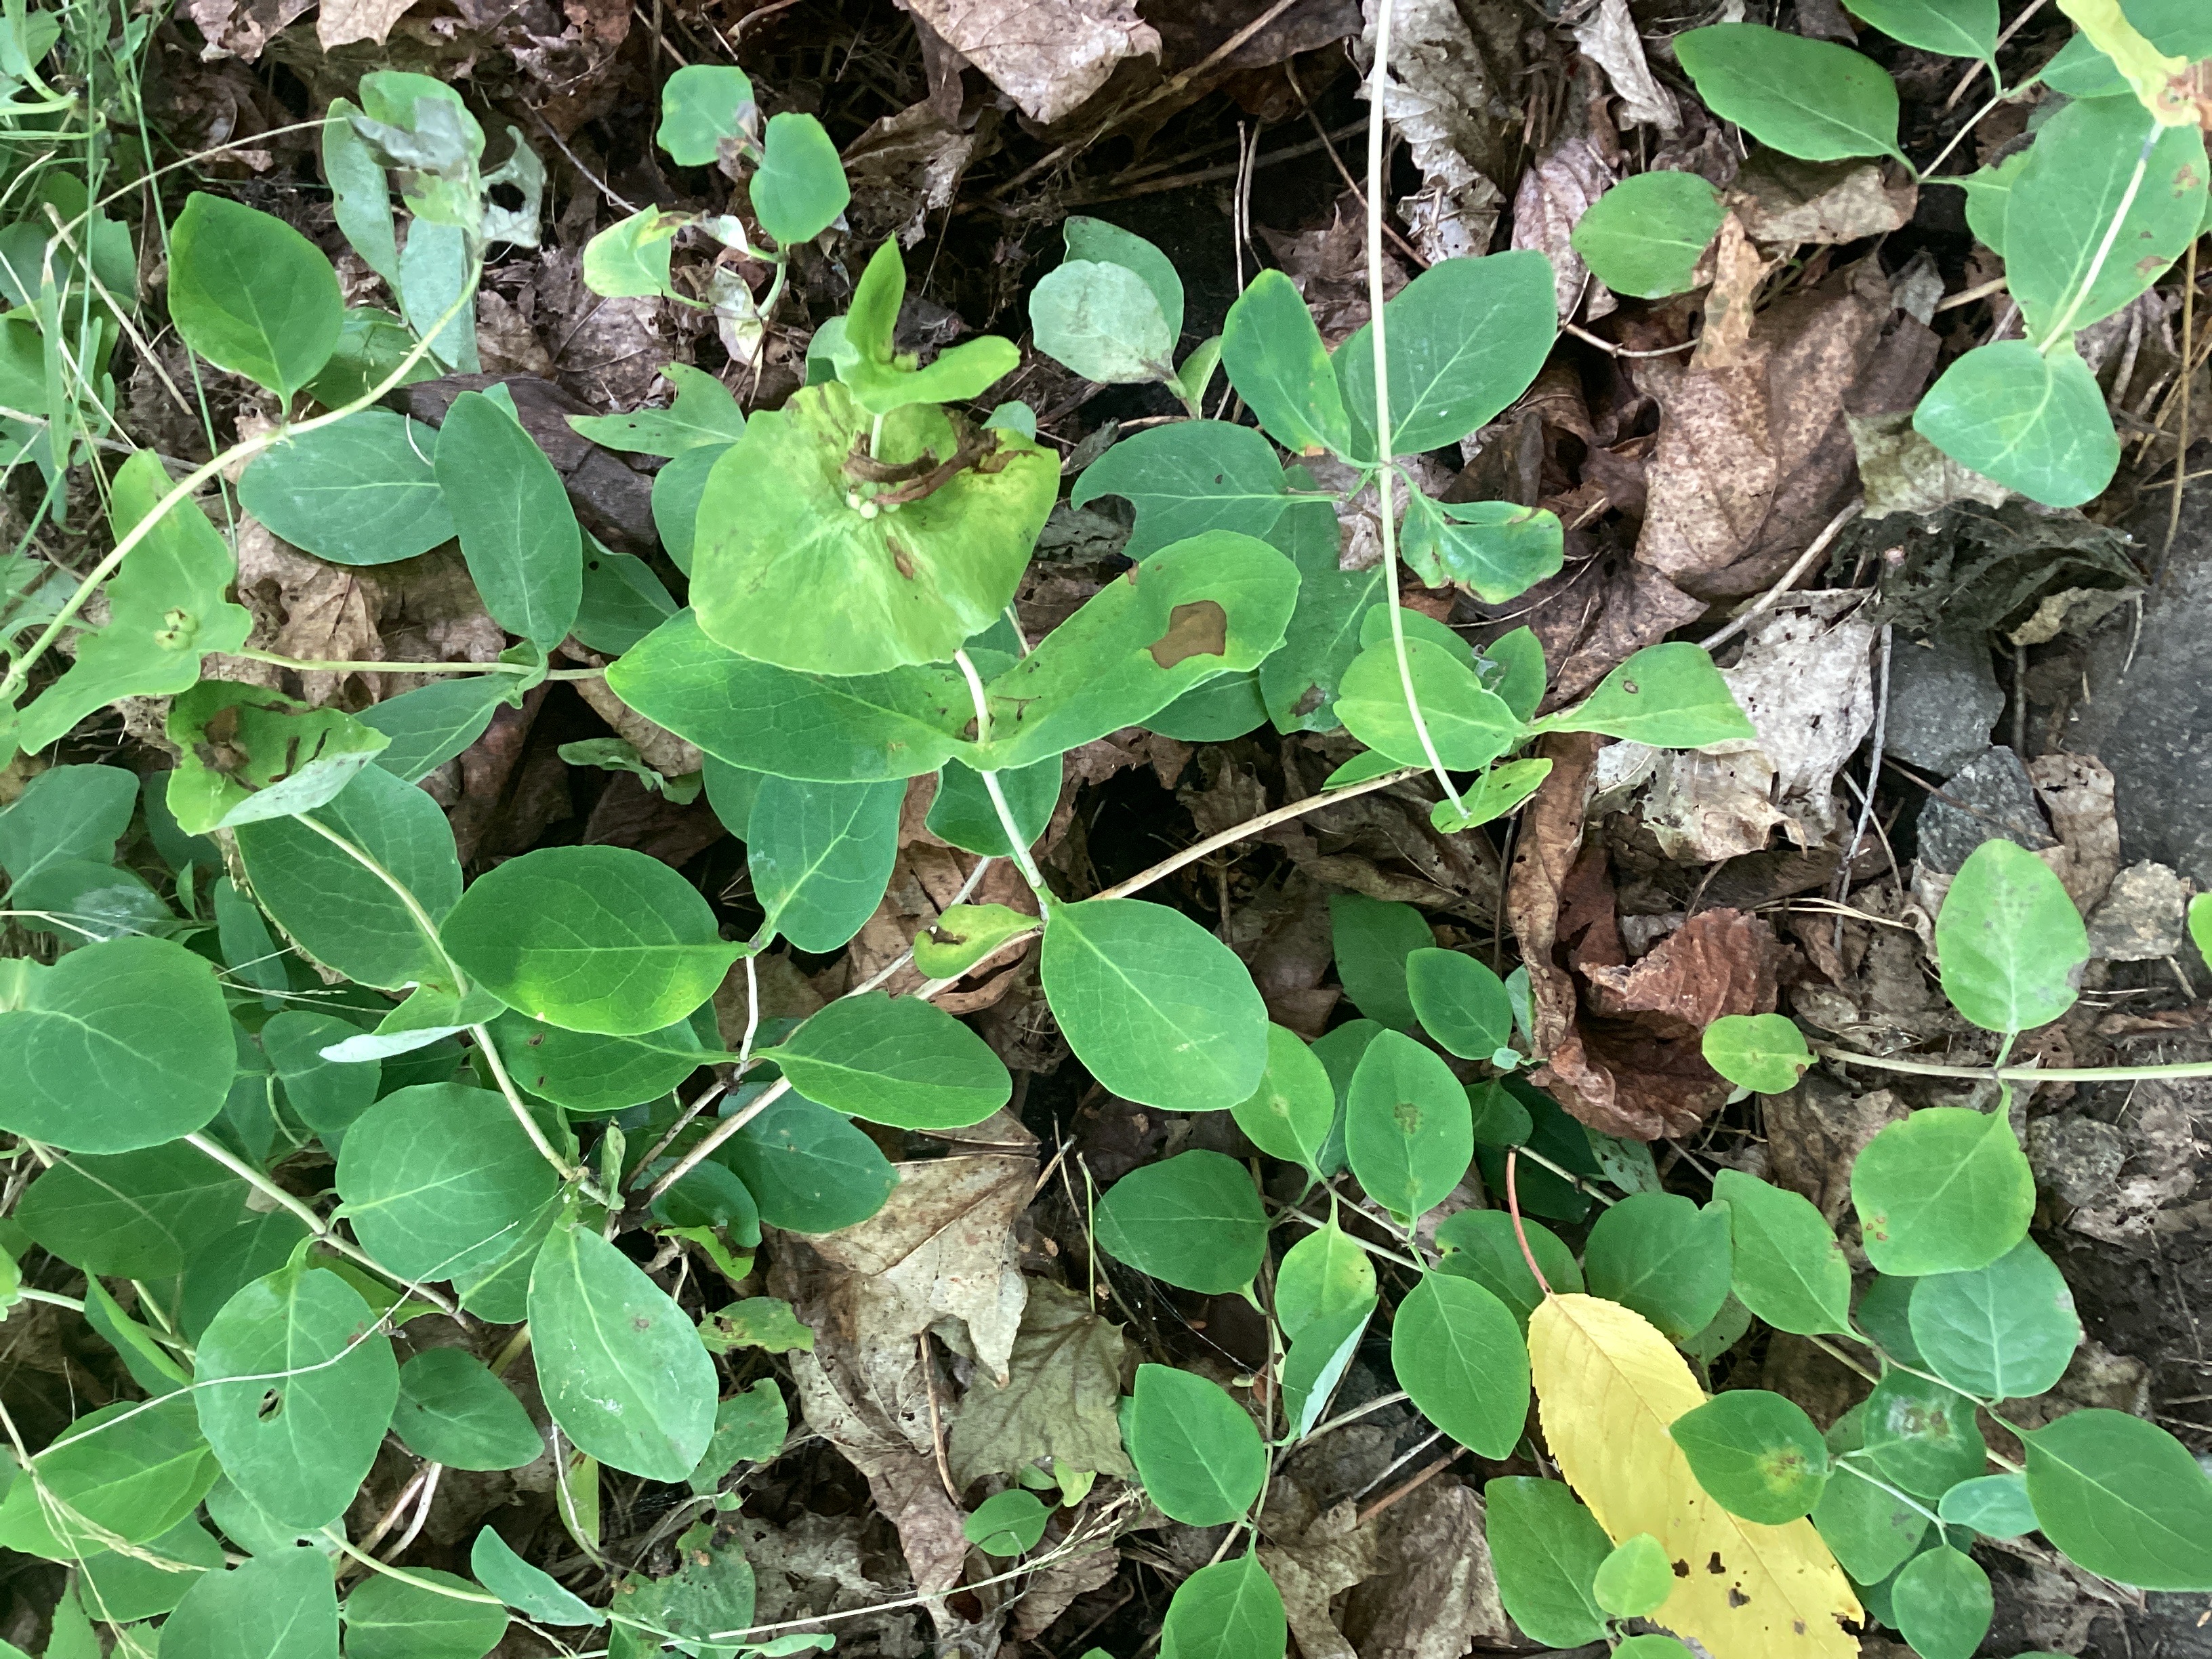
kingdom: Plantae
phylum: Tracheophyta
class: Magnoliopsida
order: Dipsacales
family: Caprifoliaceae
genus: Lonicera
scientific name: Lonicera caprifolium
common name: kaprifol
